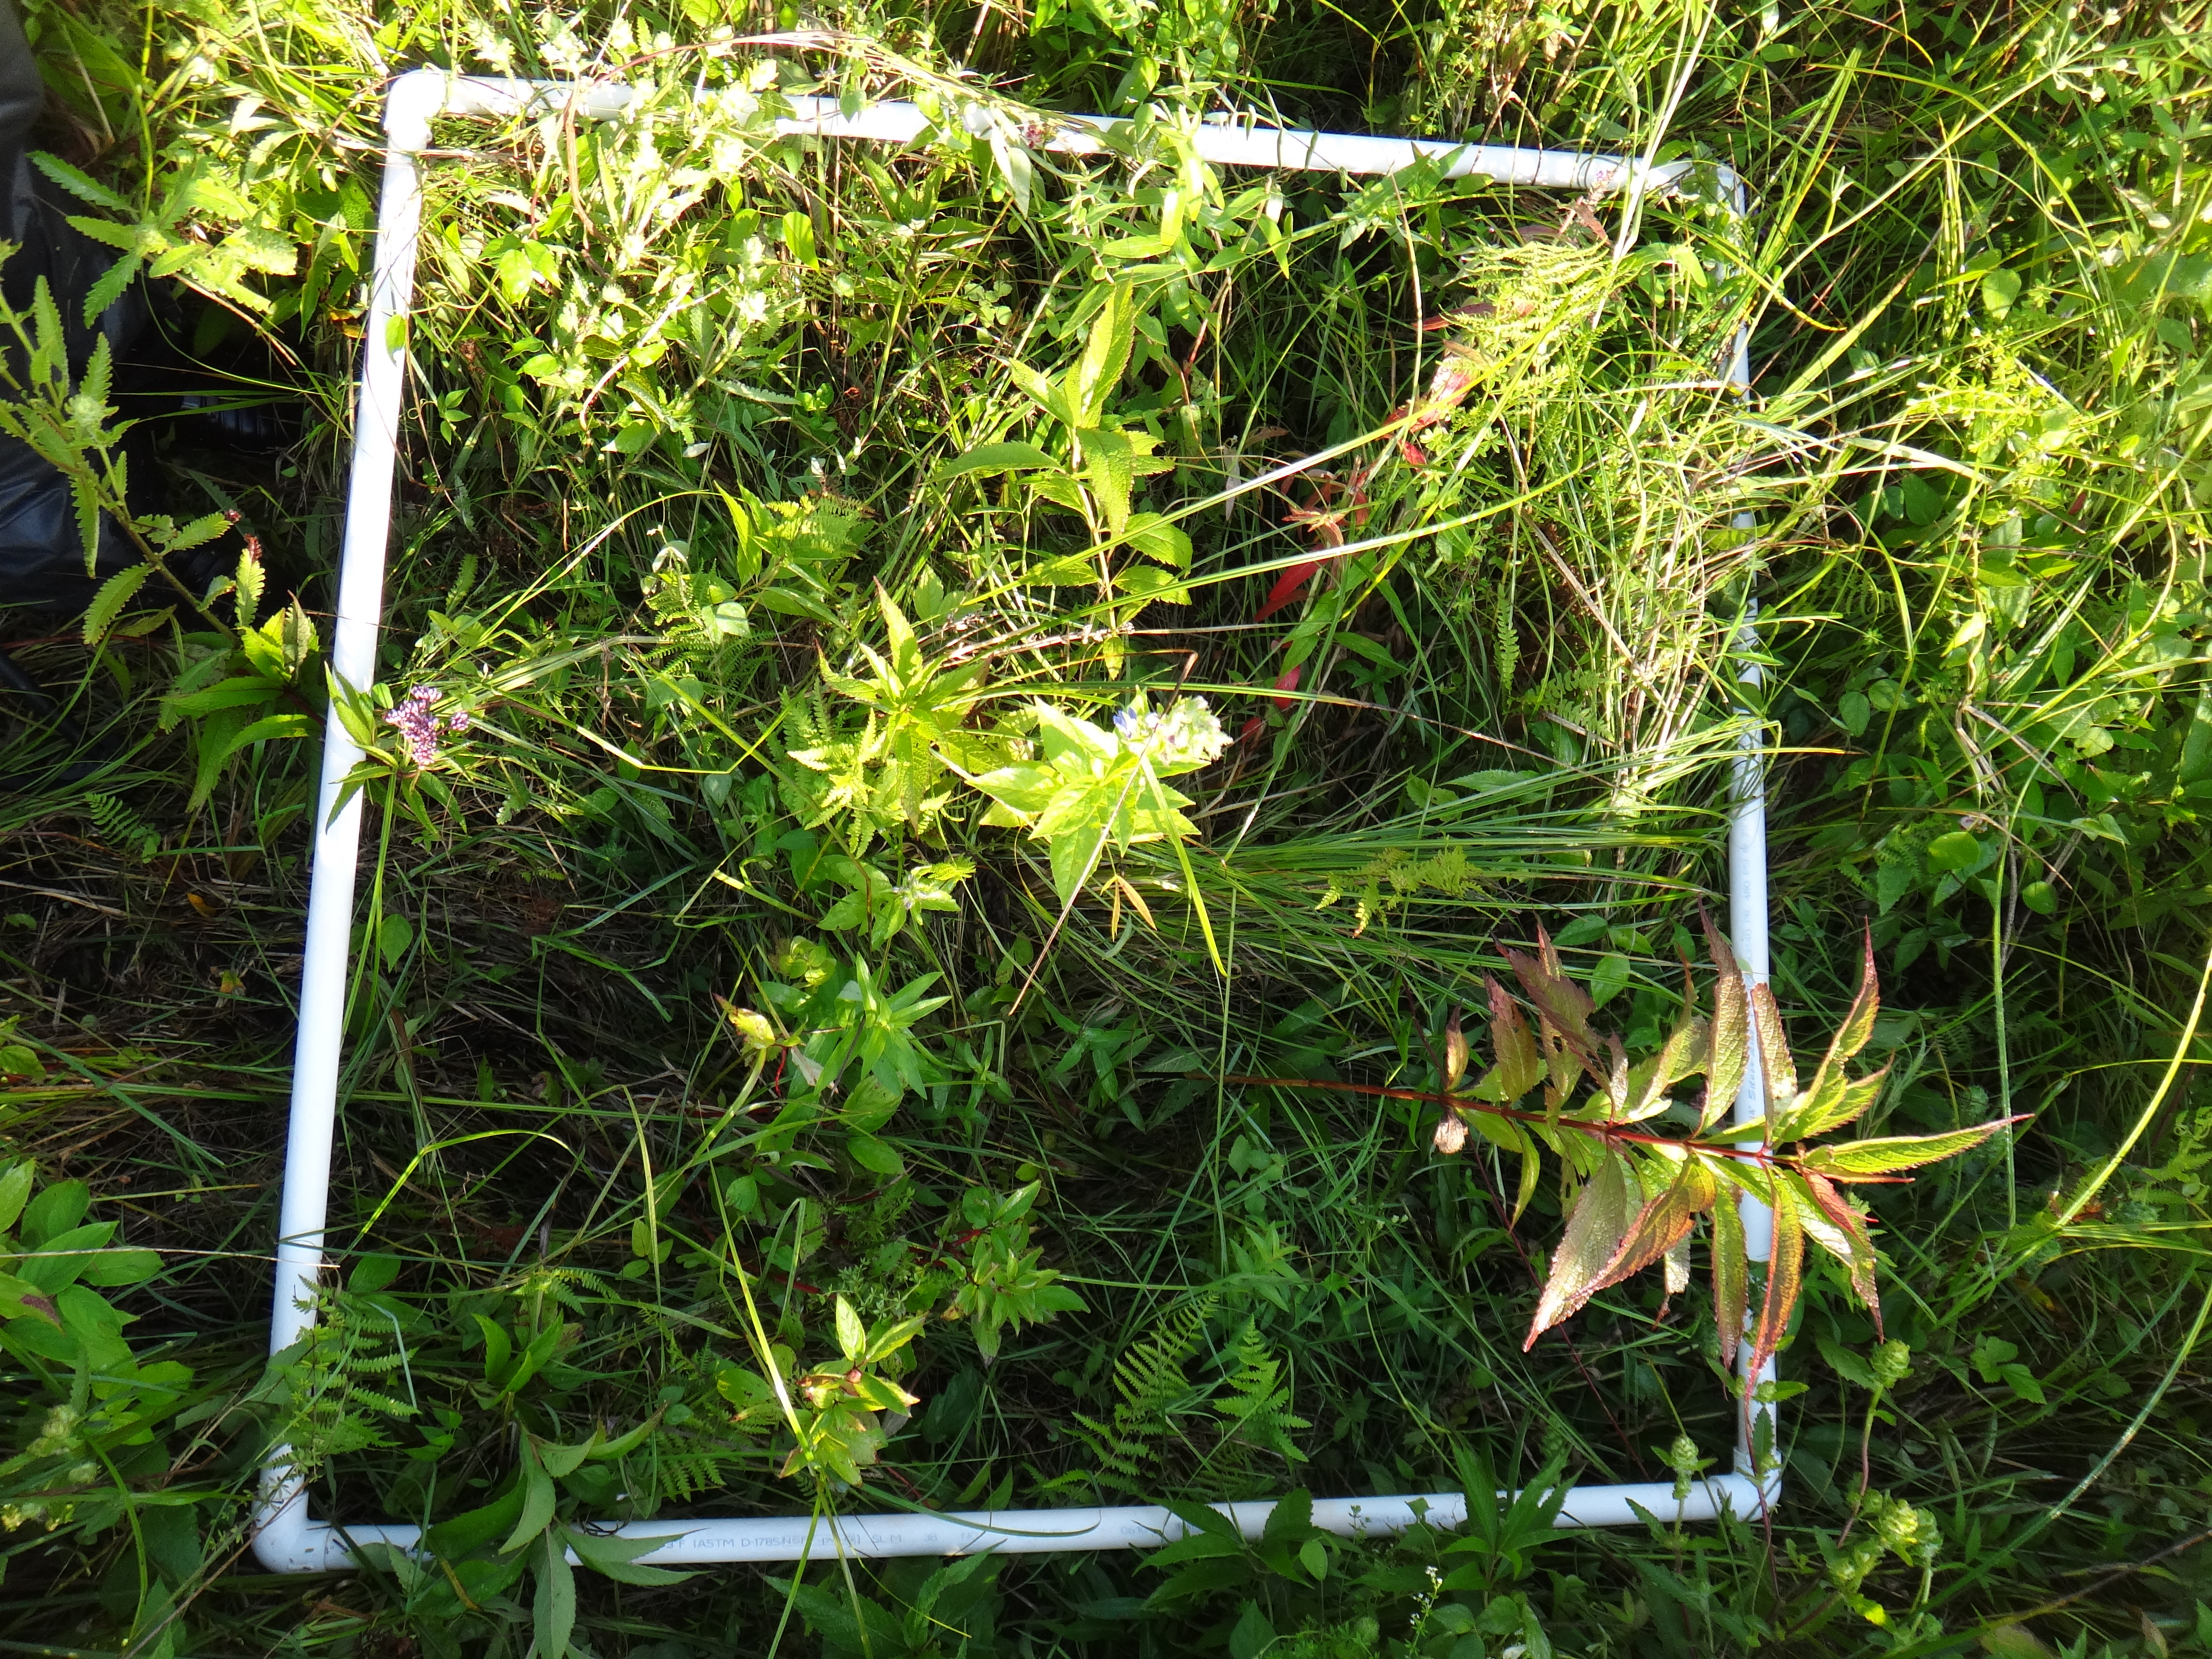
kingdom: Plantae
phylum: Tracheophyta
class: Magnoliopsida
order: Caryophyllales
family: Polygonaceae
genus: Persicaria
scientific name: Persicaria sagittata
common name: American tearthumb
